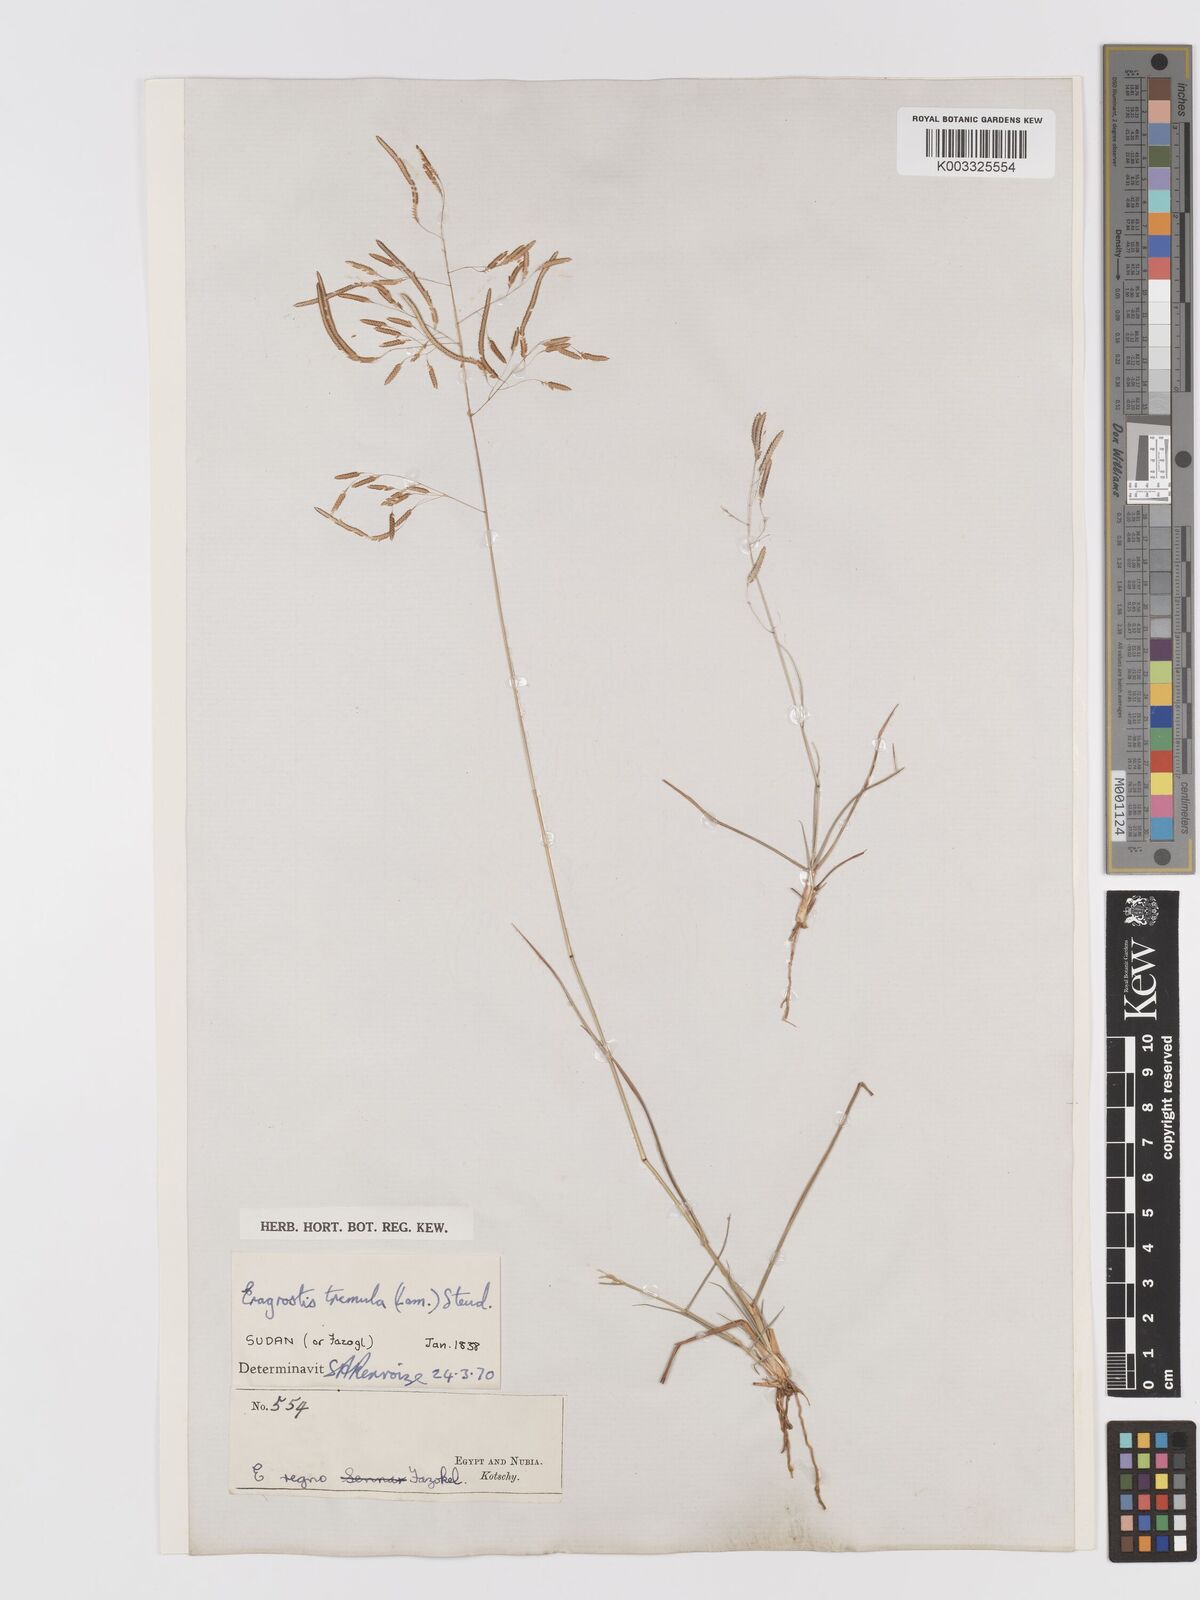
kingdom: Plantae
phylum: Tracheophyta
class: Liliopsida
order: Poales
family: Poaceae
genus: Eragrostis
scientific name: Eragrostis tremula
